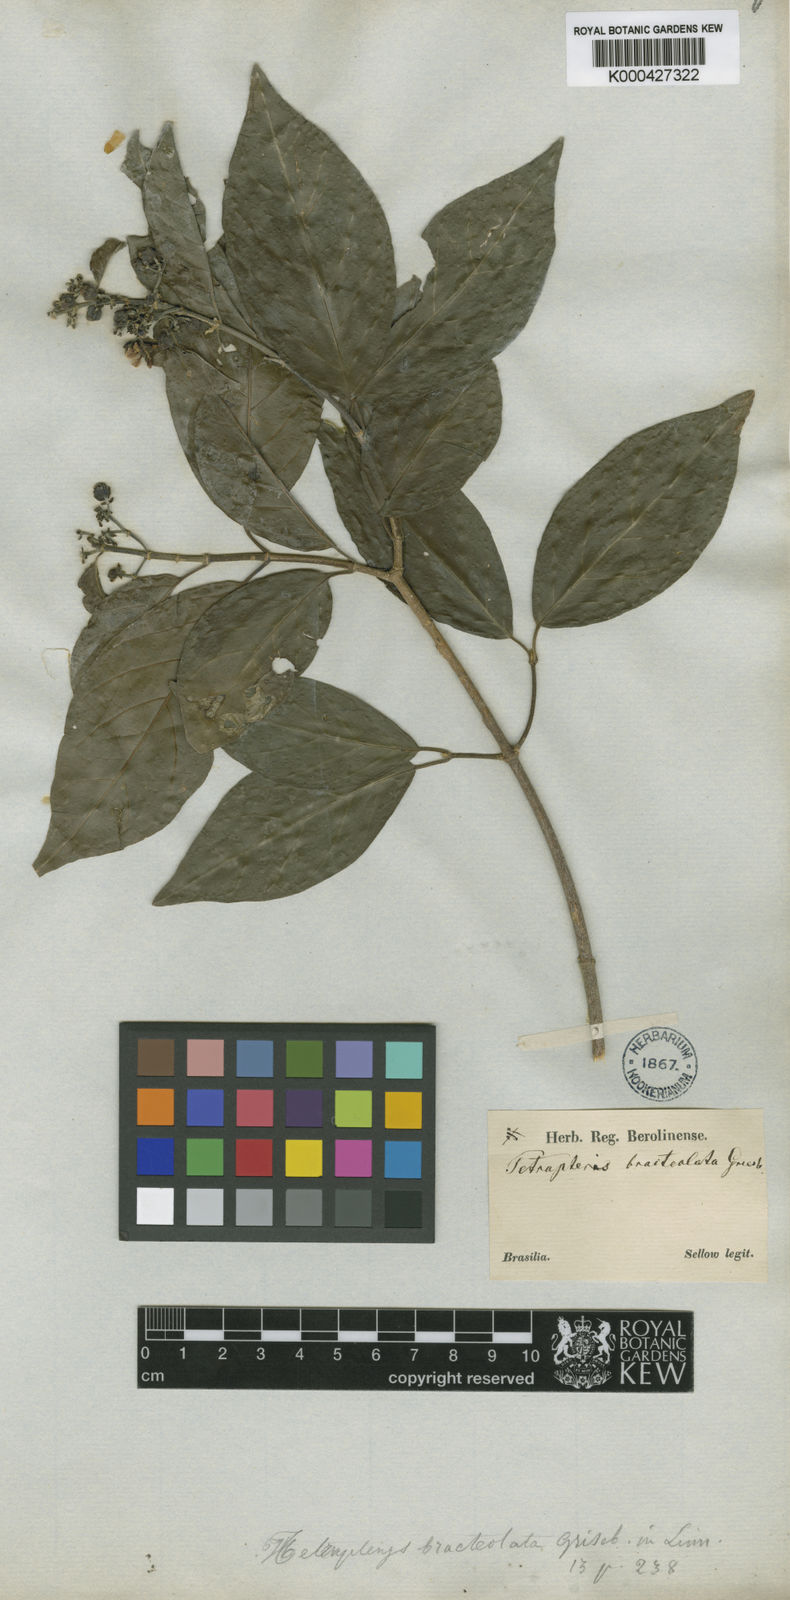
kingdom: Plantae
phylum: Tracheophyta
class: Magnoliopsida
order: Malpighiales
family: Malpighiaceae
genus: Tetrapterys
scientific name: Tetrapterys bracteolata
